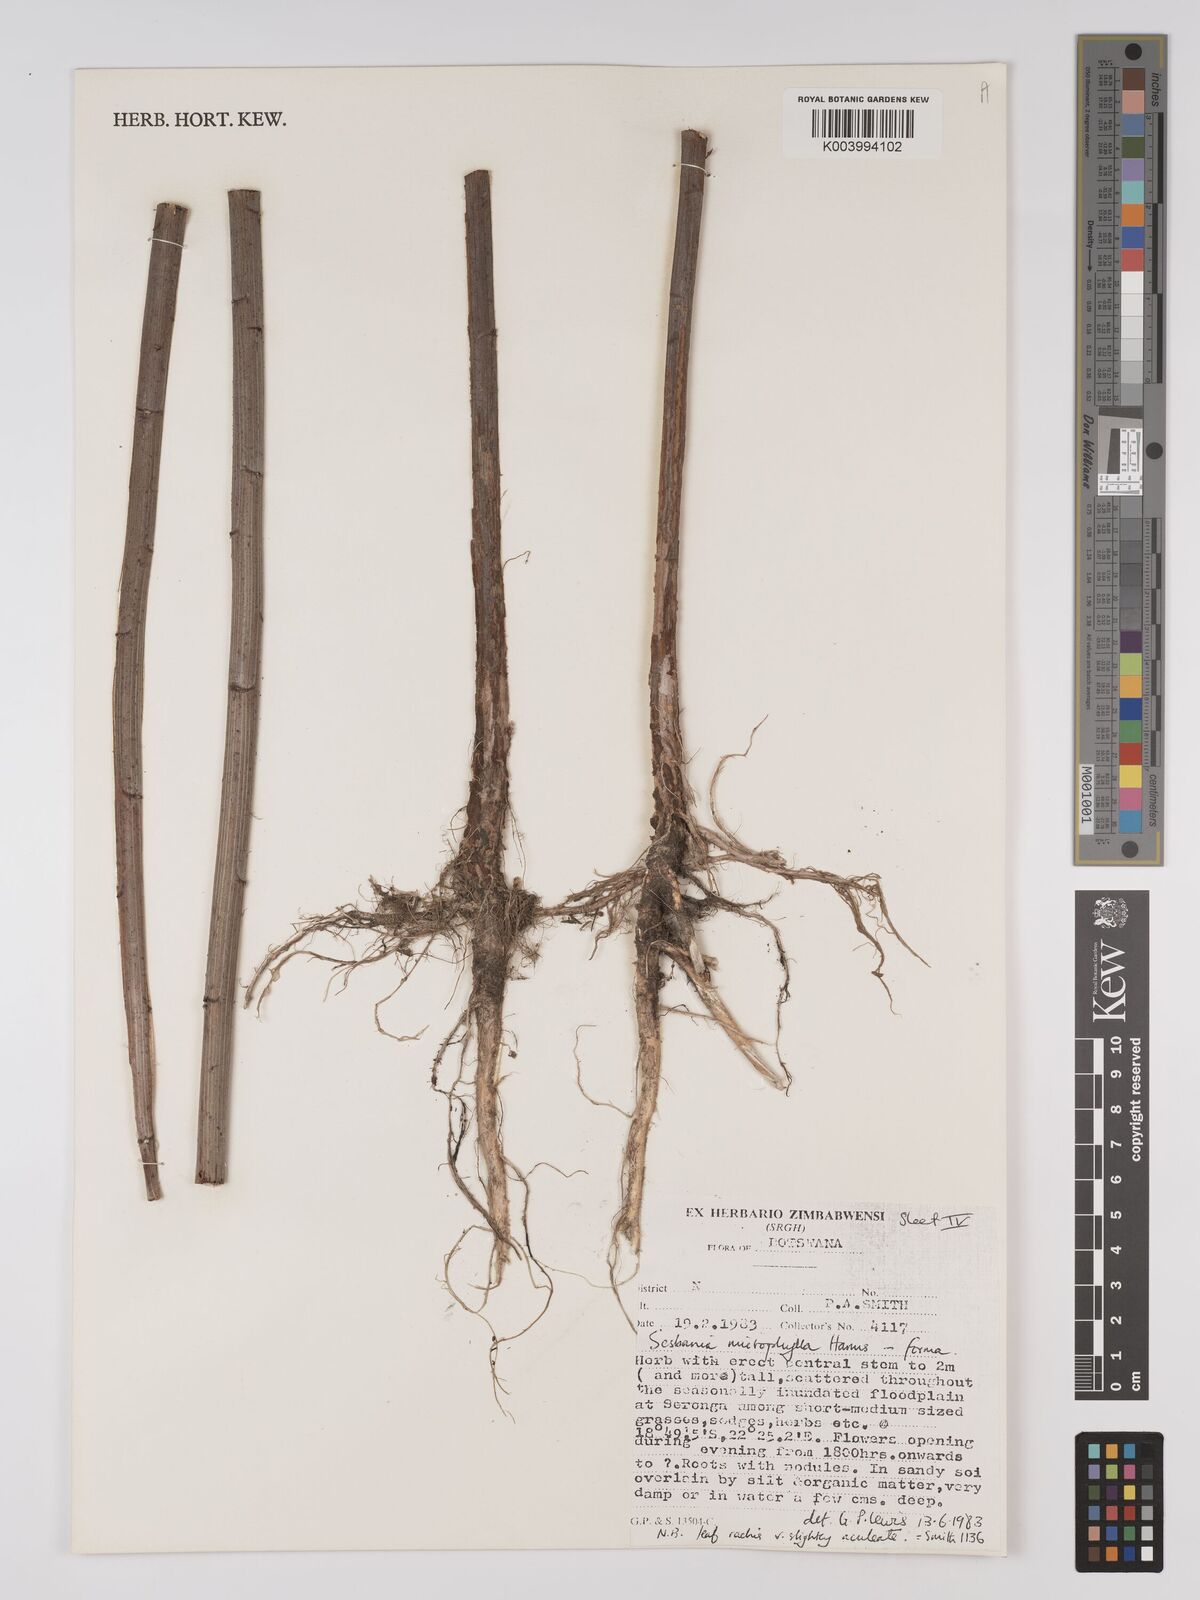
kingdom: Plantae
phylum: Tracheophyta
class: Magnoliopsida
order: Fabales
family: Fabaceae
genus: Sesbania
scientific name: Sesbania microphylla
